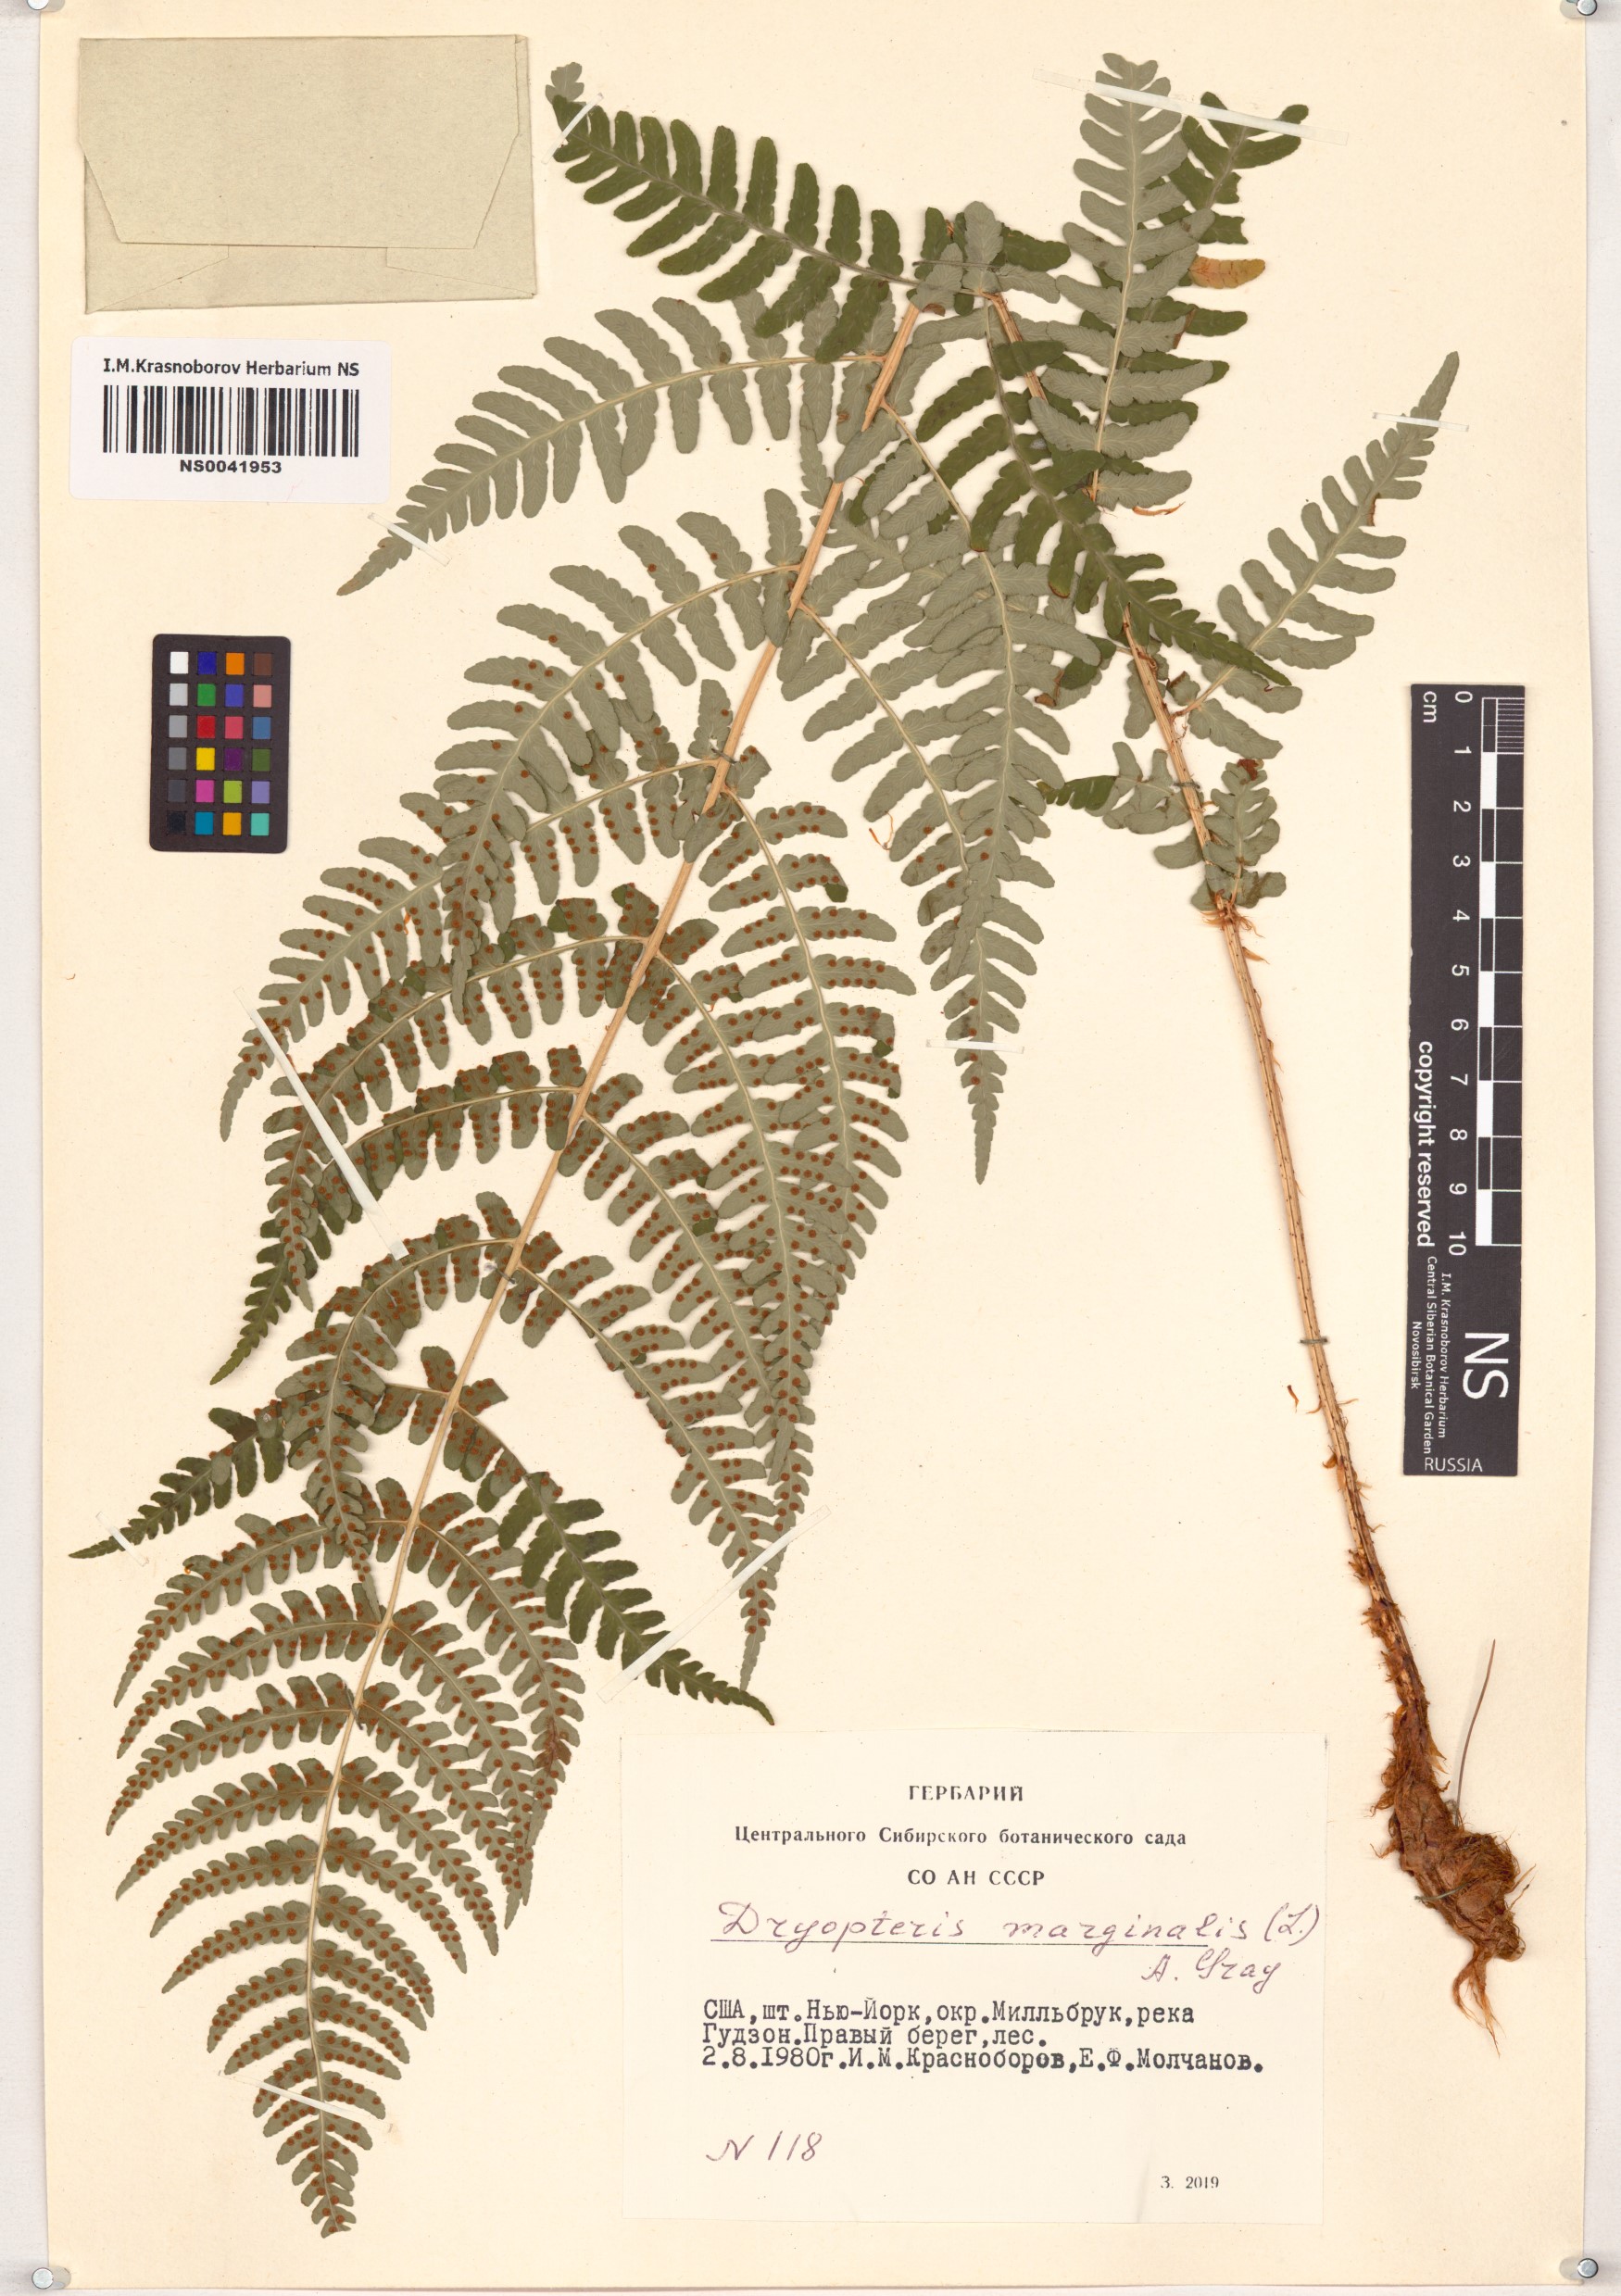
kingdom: Plantae
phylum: Tracheophyta
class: Polypodiopsida
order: Polypodiales
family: Dryopteridaceae
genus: Dryopteris
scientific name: Dryopteris marginalis
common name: Marginal wood fern
